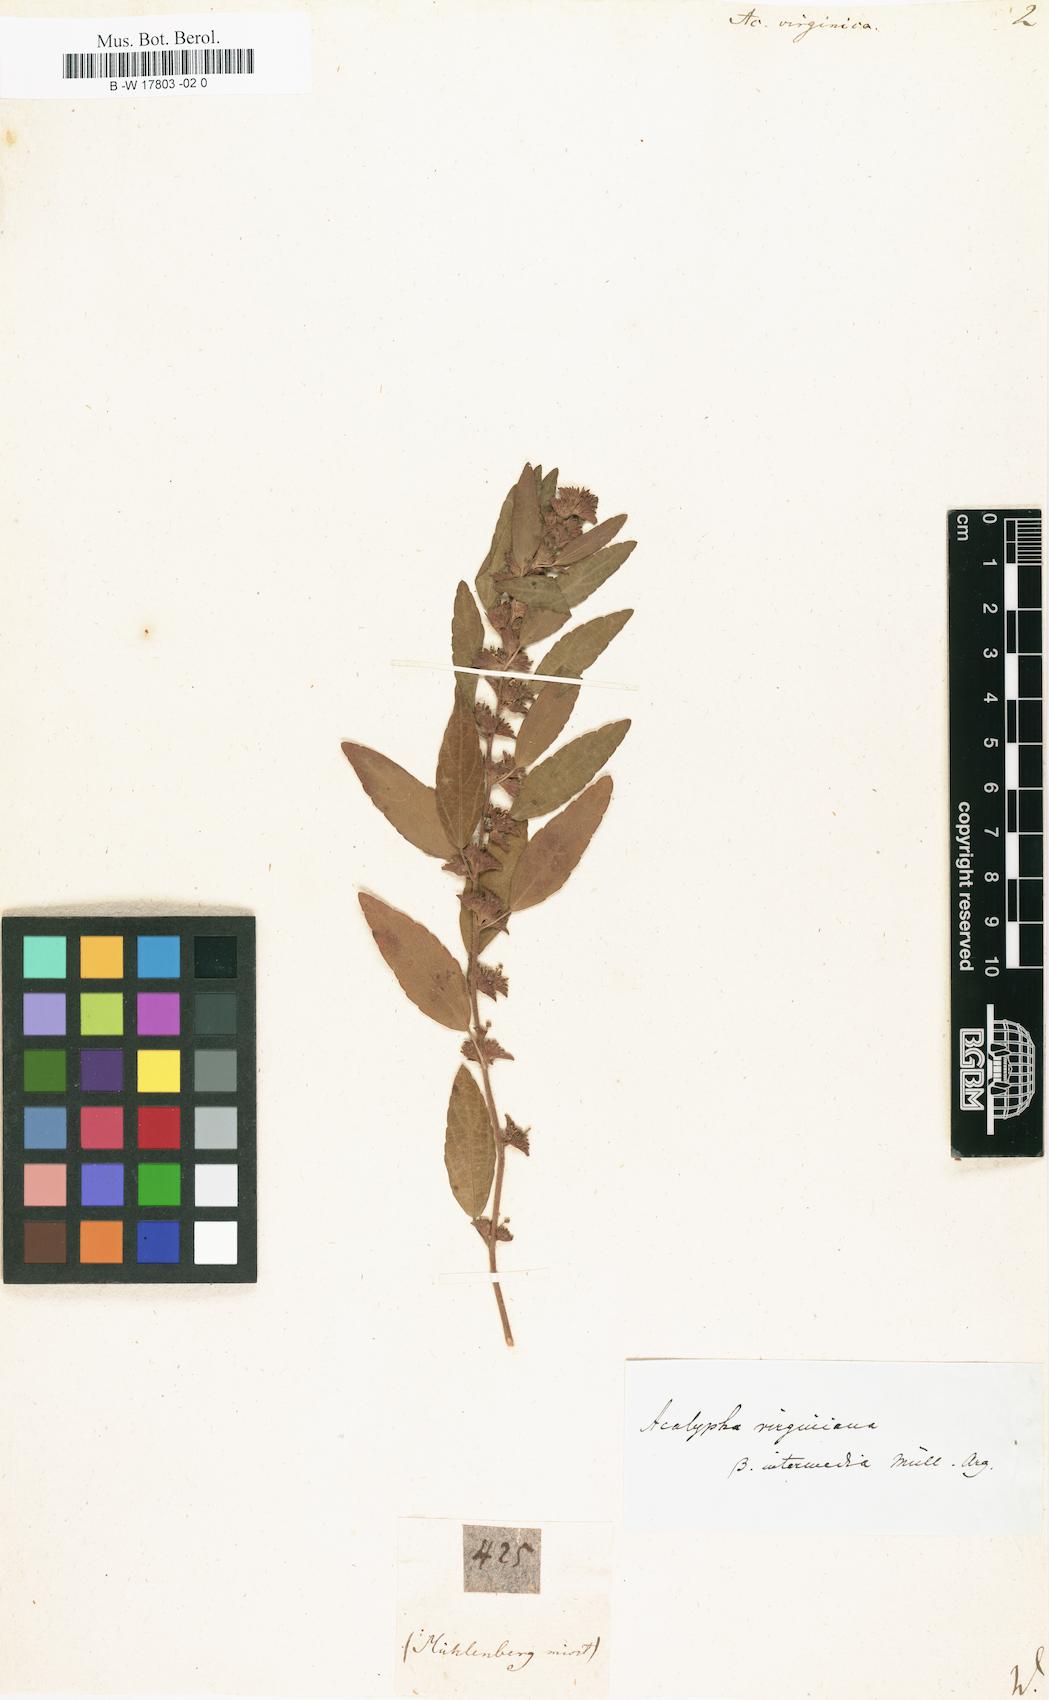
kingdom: Plantae
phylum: Tracheophyta
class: Magnoliopsida
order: Malpighiales
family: Euphorbiaceae
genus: Acalypha
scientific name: Acalypha virginica
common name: Virginia copperleaf
